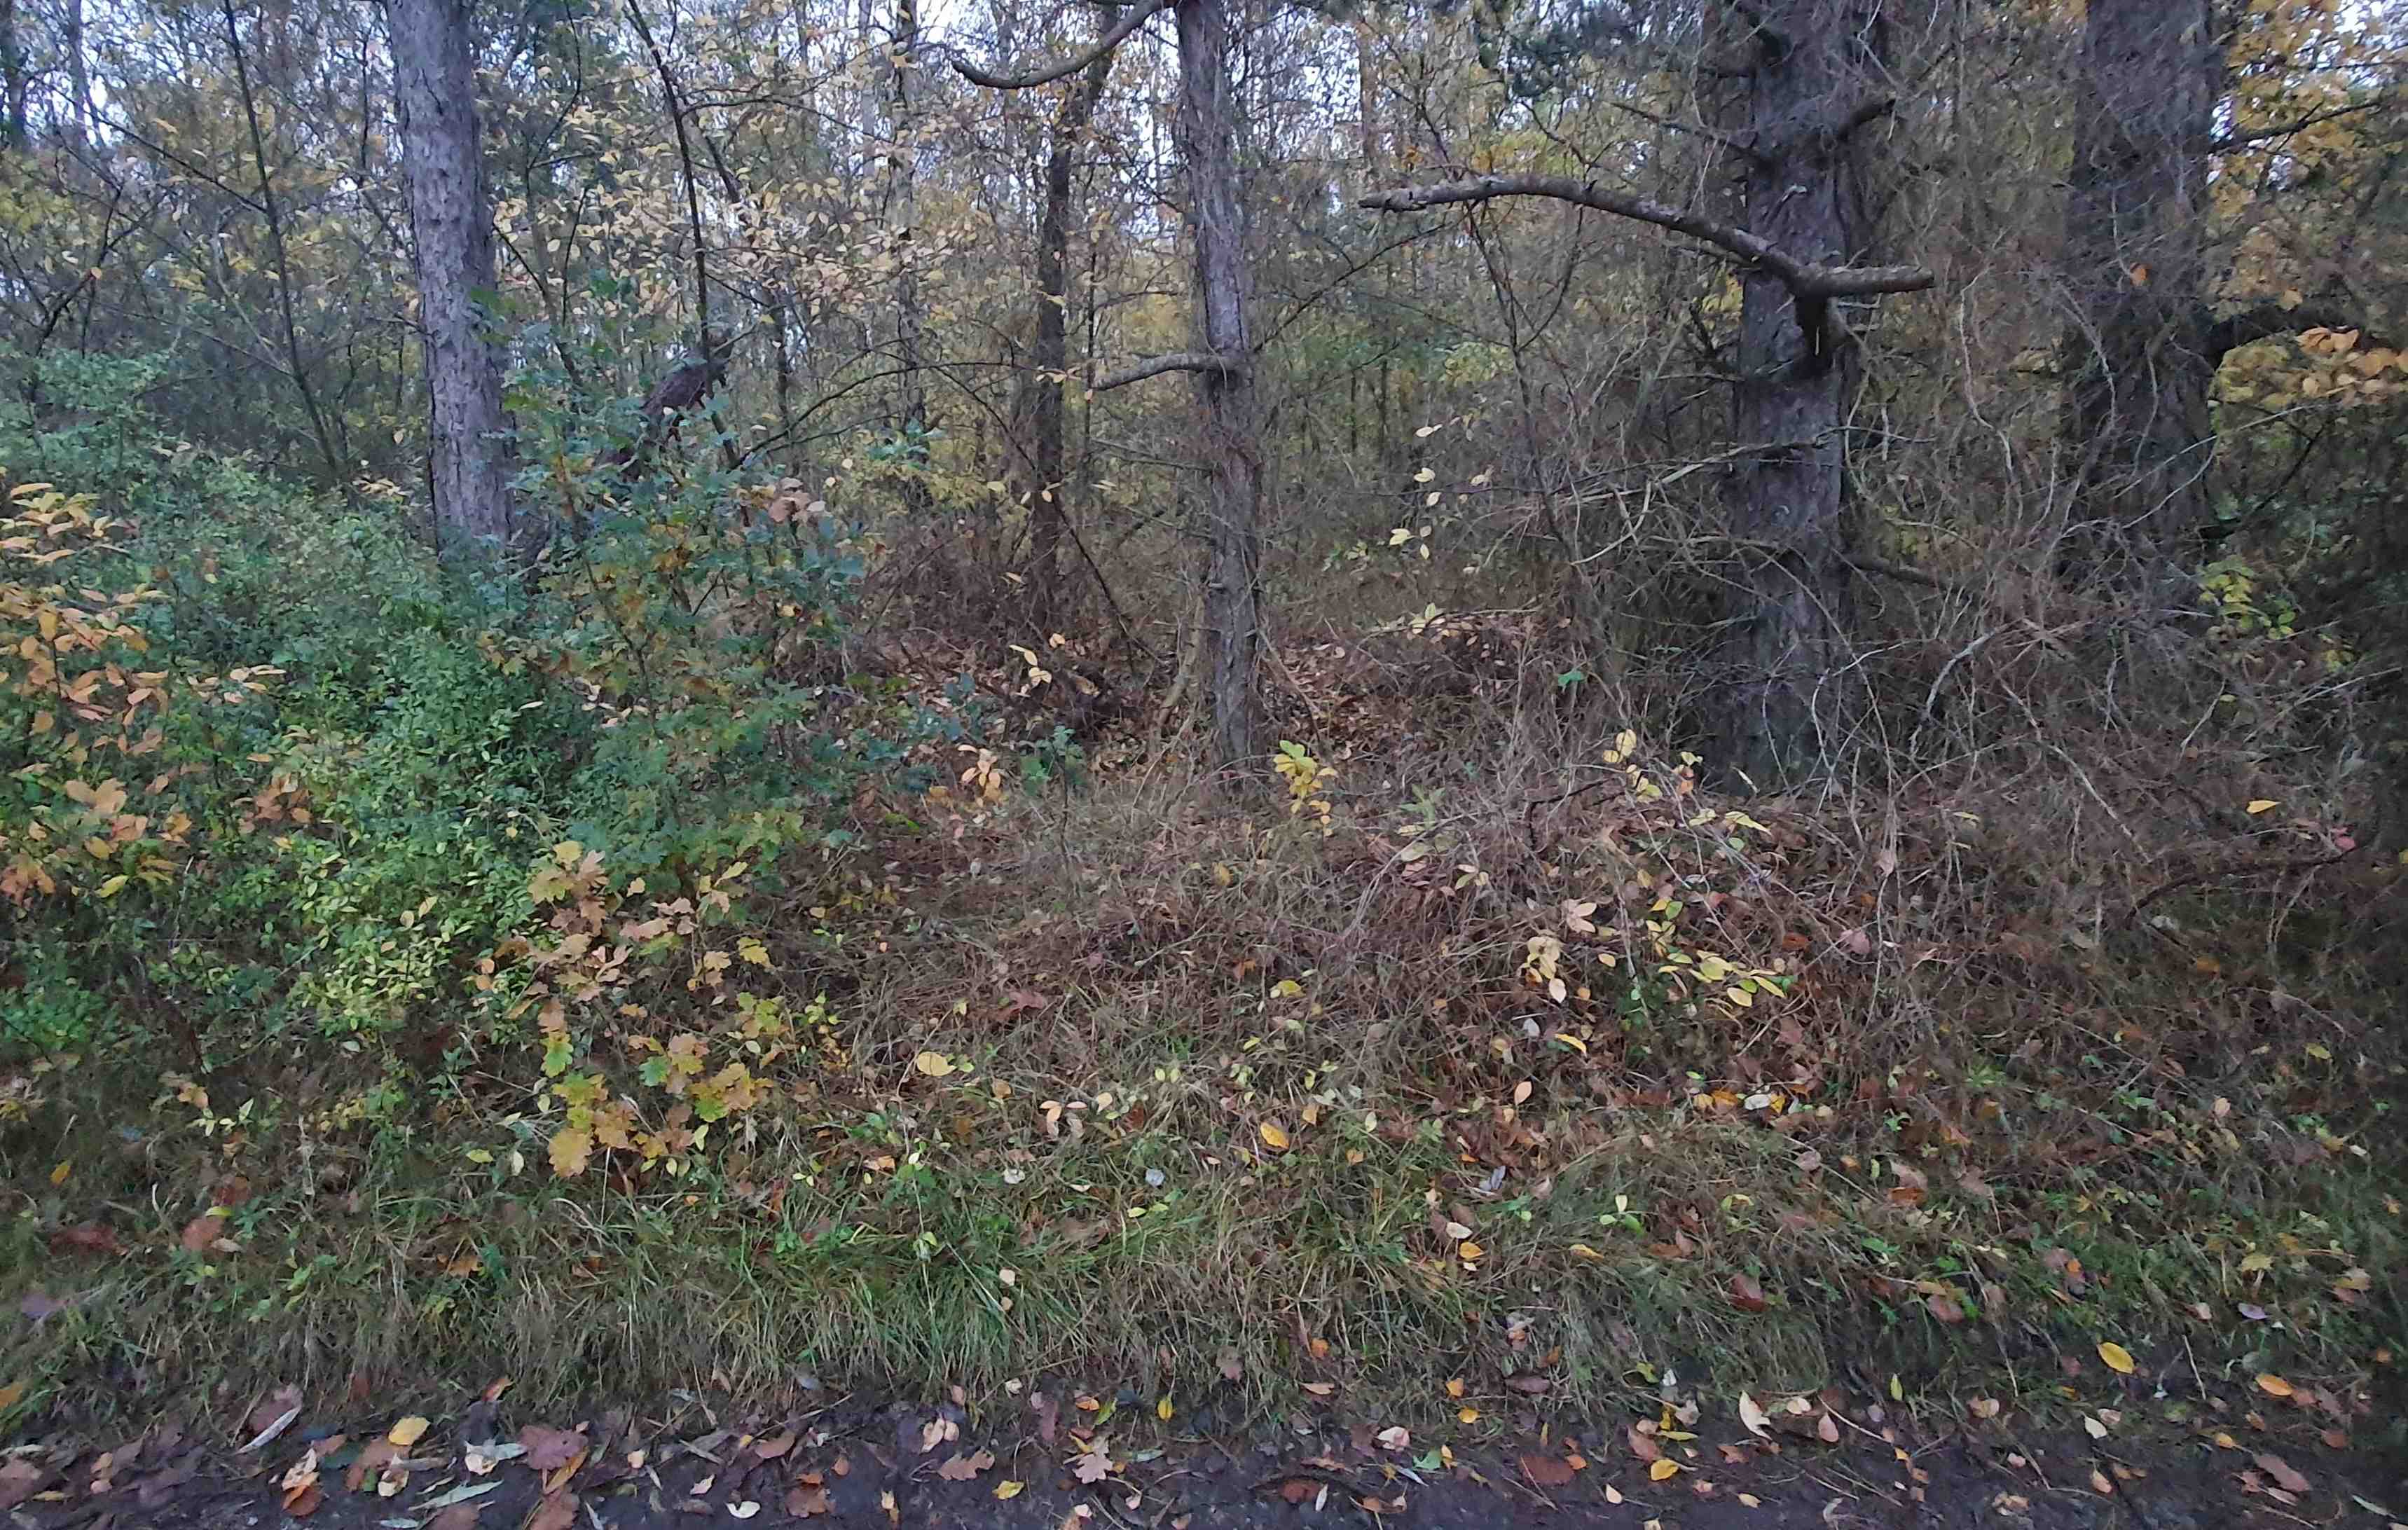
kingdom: Fungi
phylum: Basidiomycota
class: Agaricomycetes
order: Agaricales
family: Tricholomataceae
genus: Tricholoma
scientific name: Tricholoma sulphureum
